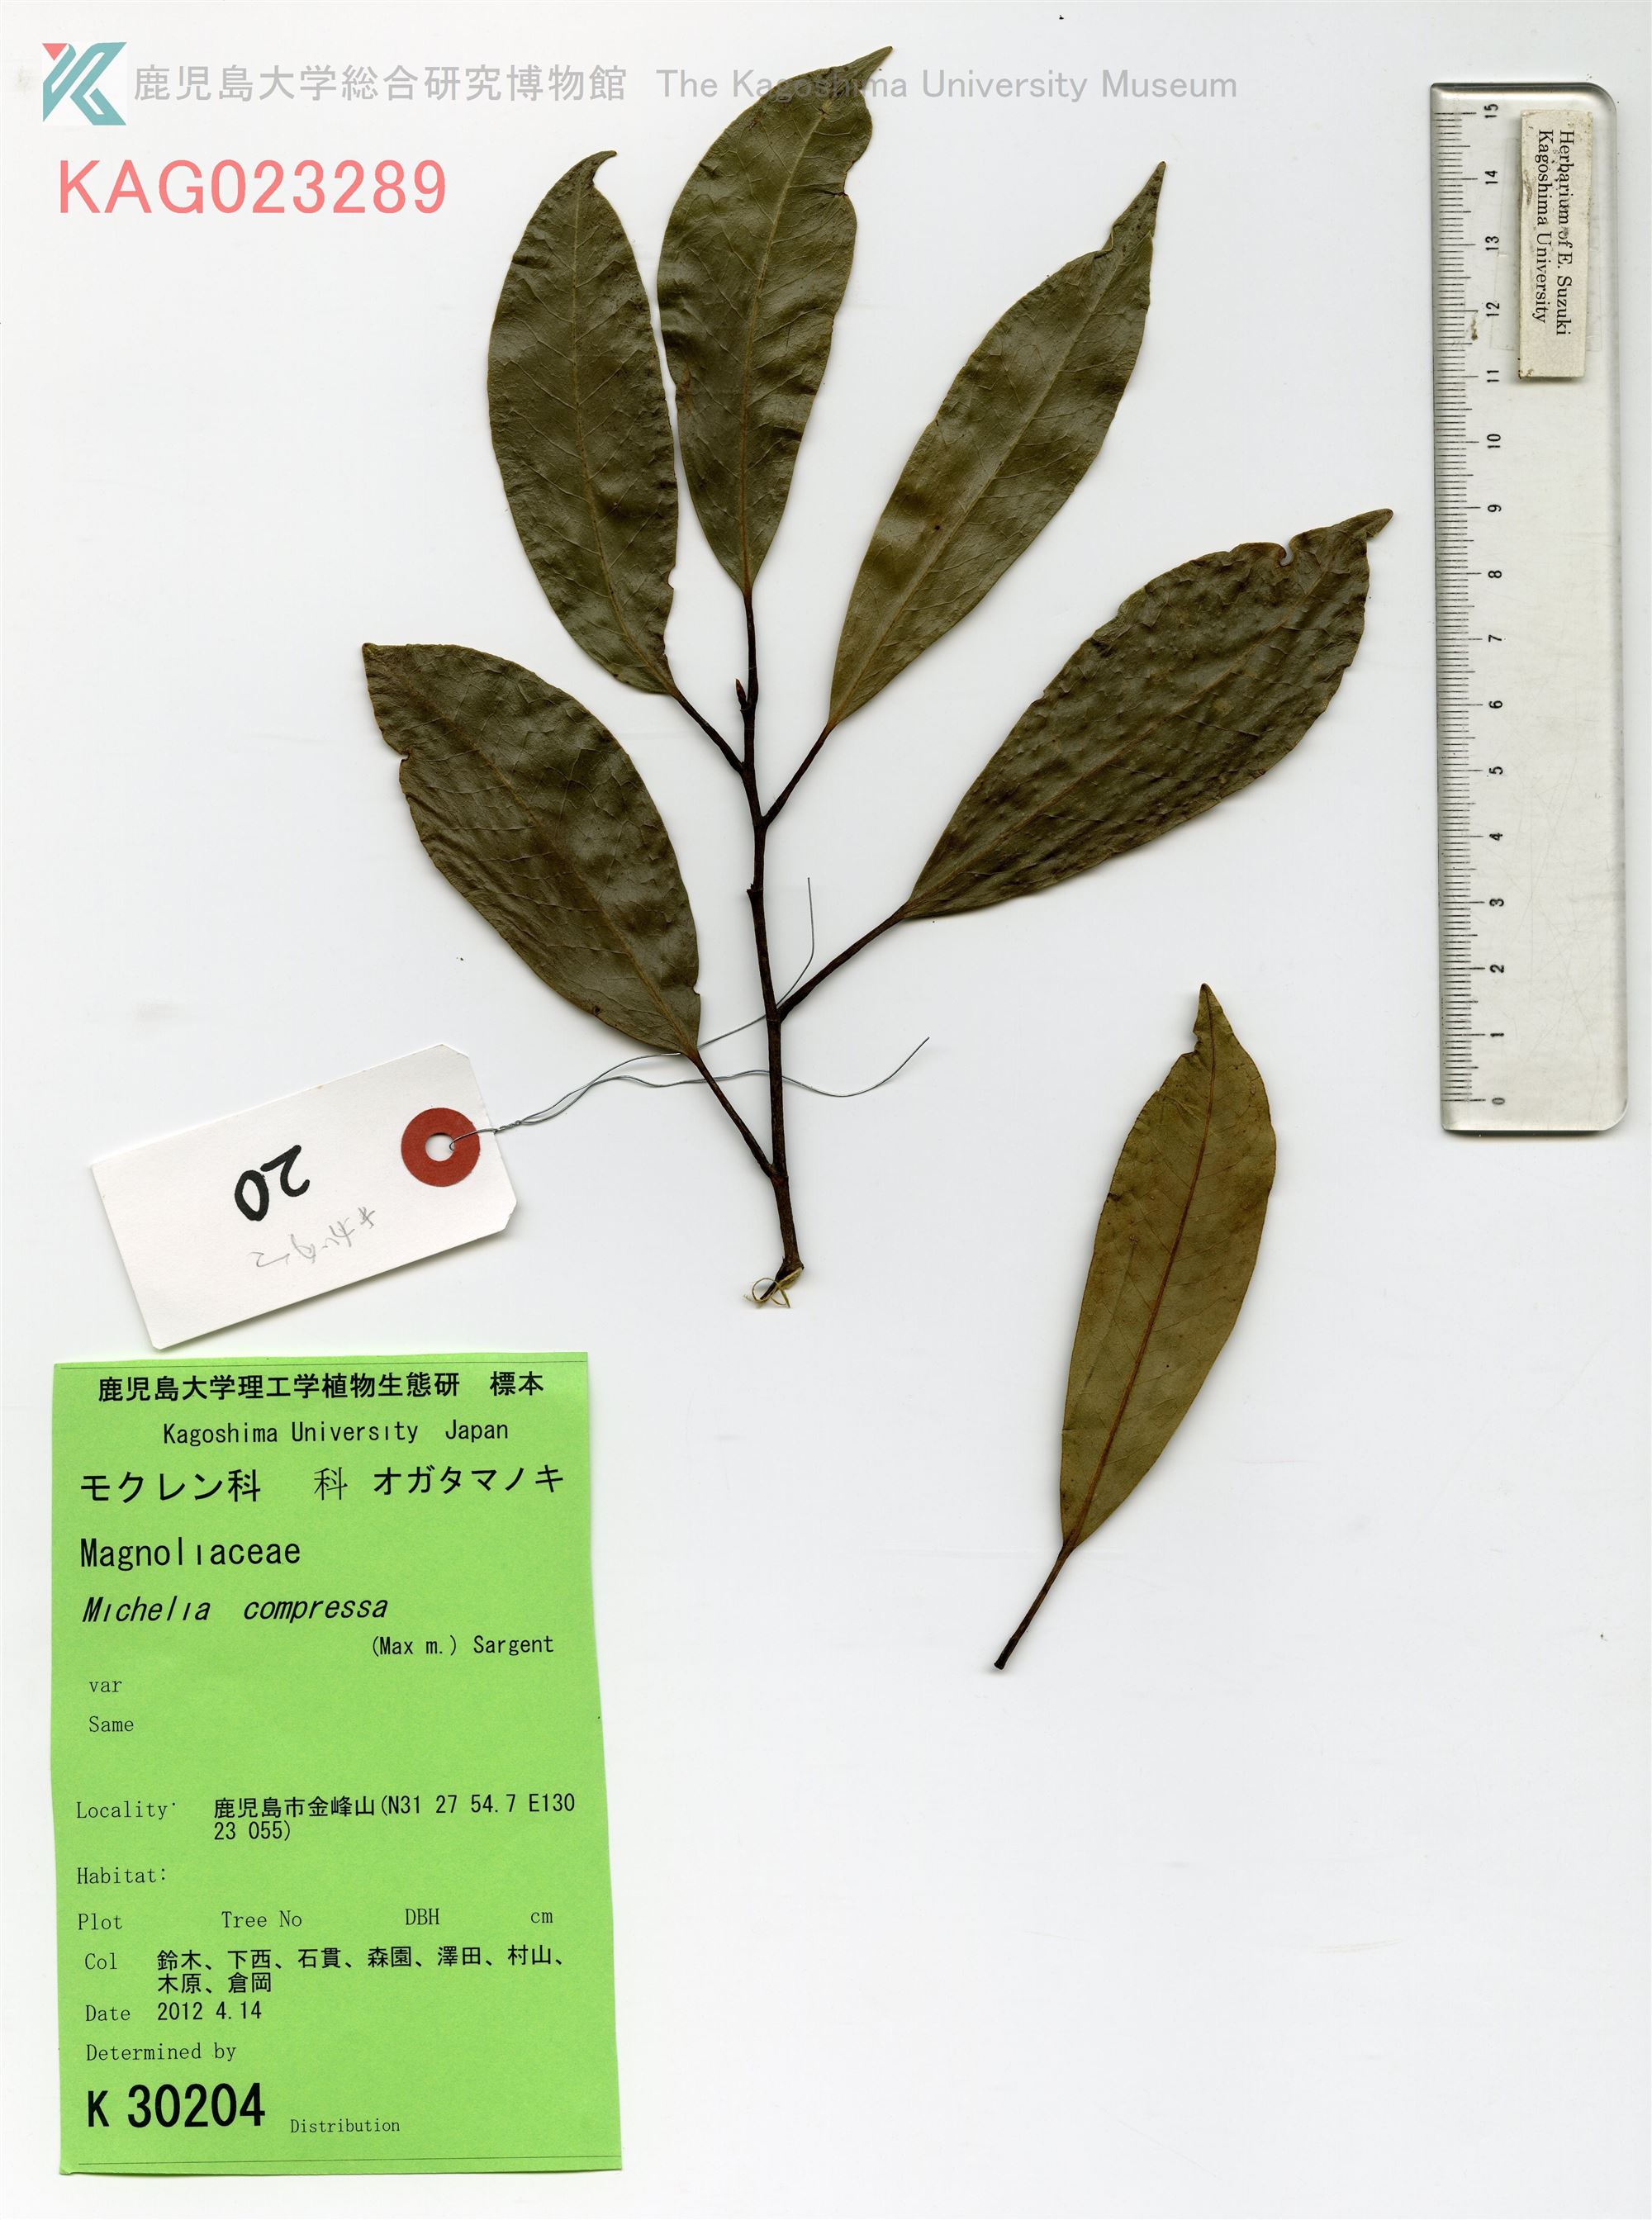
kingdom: Plantae
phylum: Tracheophyta
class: Magnoliopsida
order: Magnoliales
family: Magnoliaceae
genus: Magnolia
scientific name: Magnolia compressa
